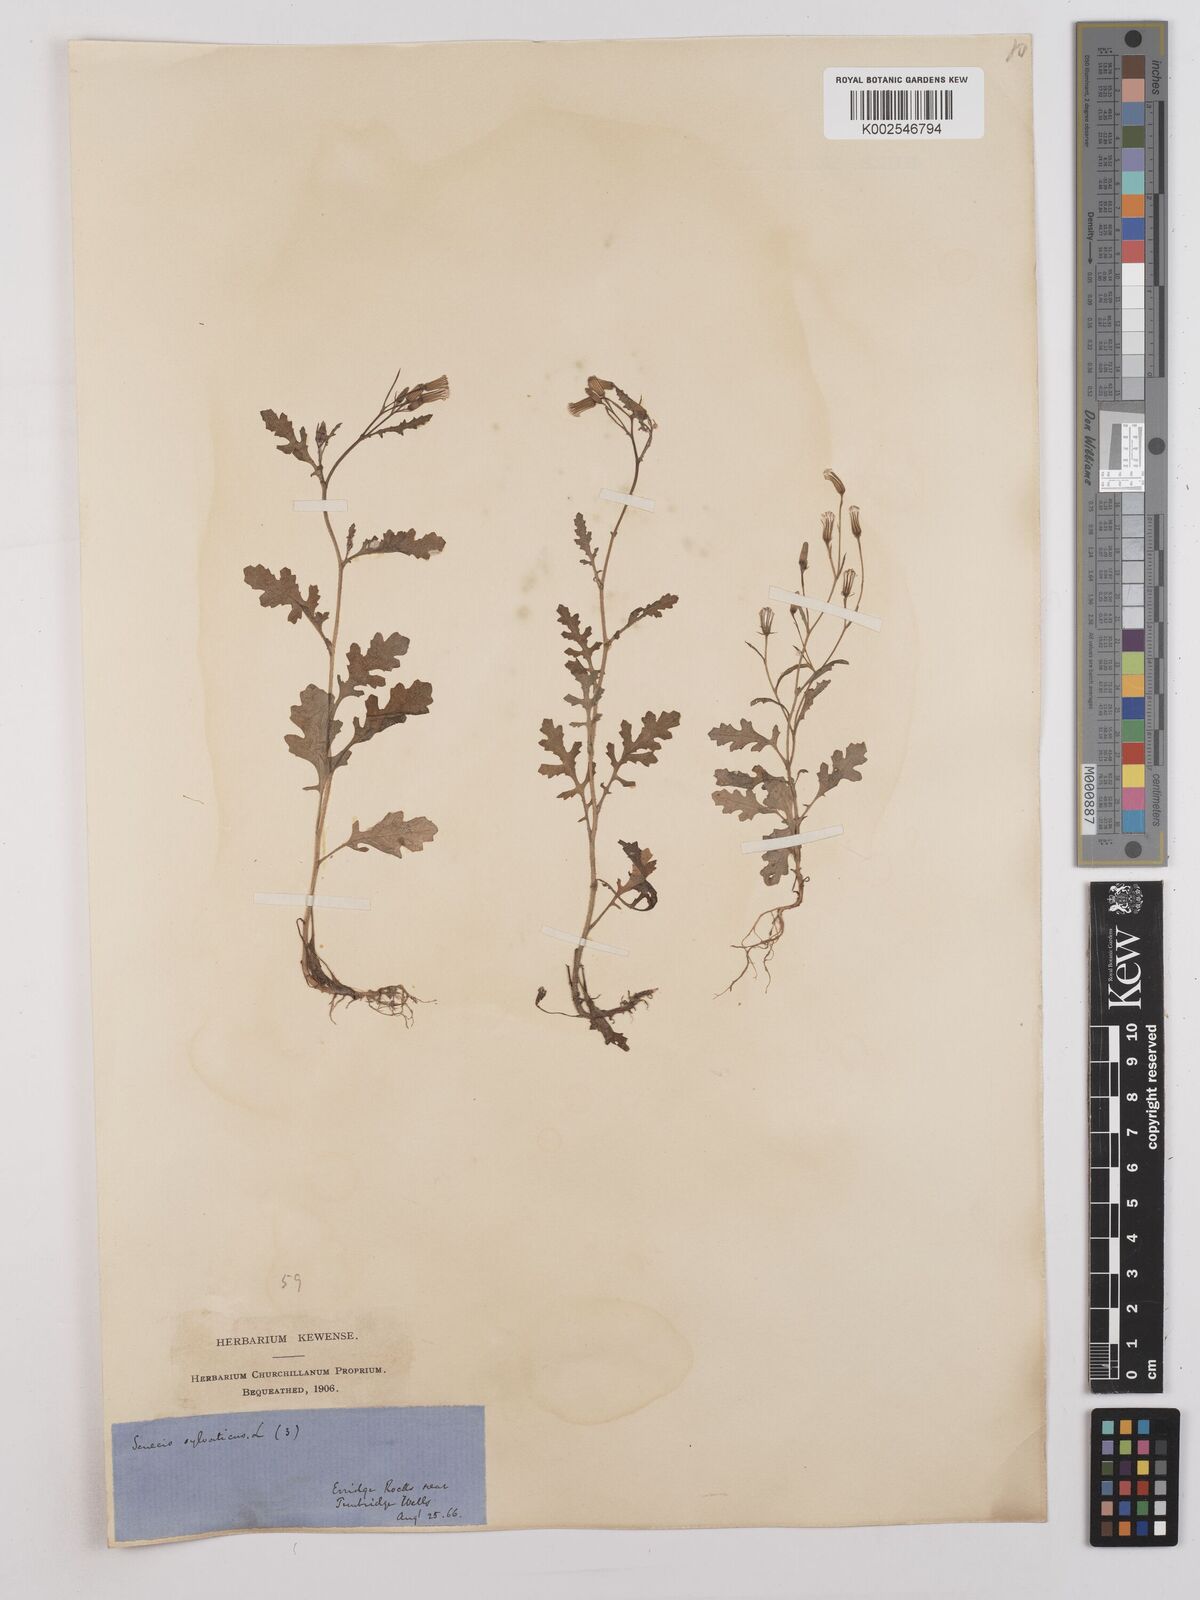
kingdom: Plantae
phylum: Tracheophyta
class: Magnoliopsida
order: Asterales
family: Asteraceae
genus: Senecio
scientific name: Senecio sylvaticus
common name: Woodland ragwort
